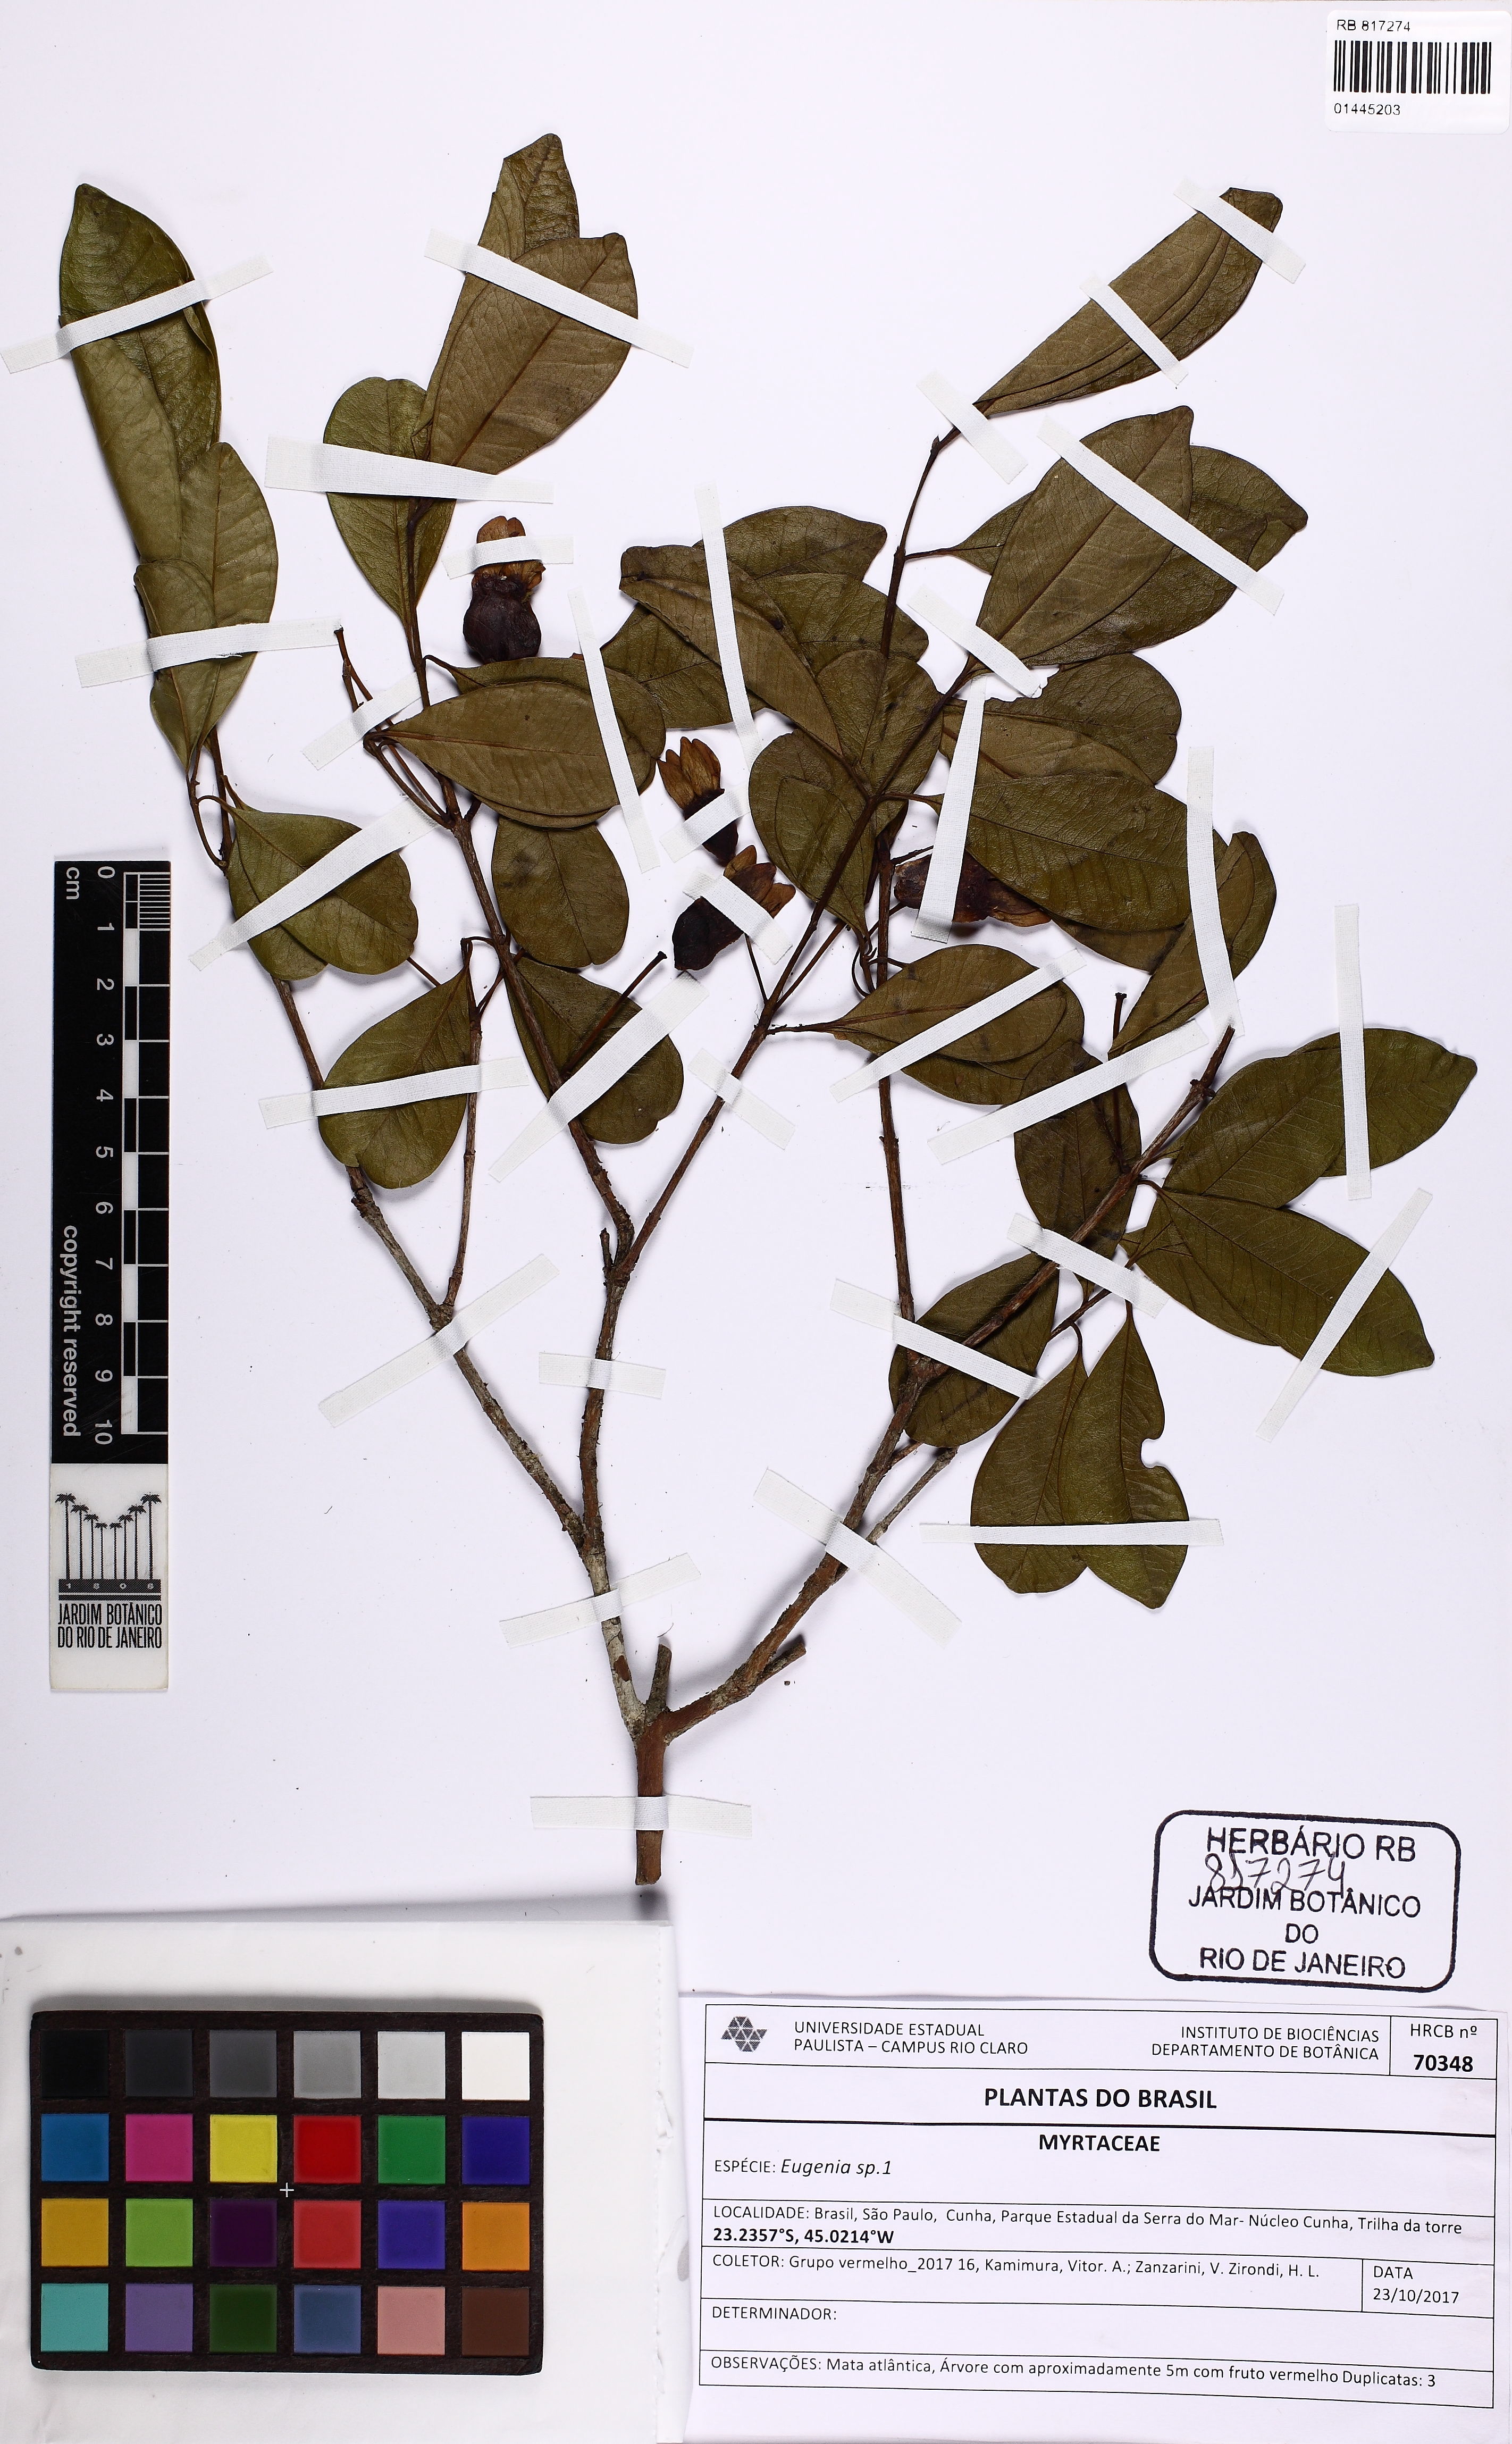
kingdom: Plantae
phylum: Tracheophyta
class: Magnoliopsida
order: Myrtales
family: Myrtaceae
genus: Eugenia
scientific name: Eugenia involucrata
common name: Cherry-of-the-rio grande
